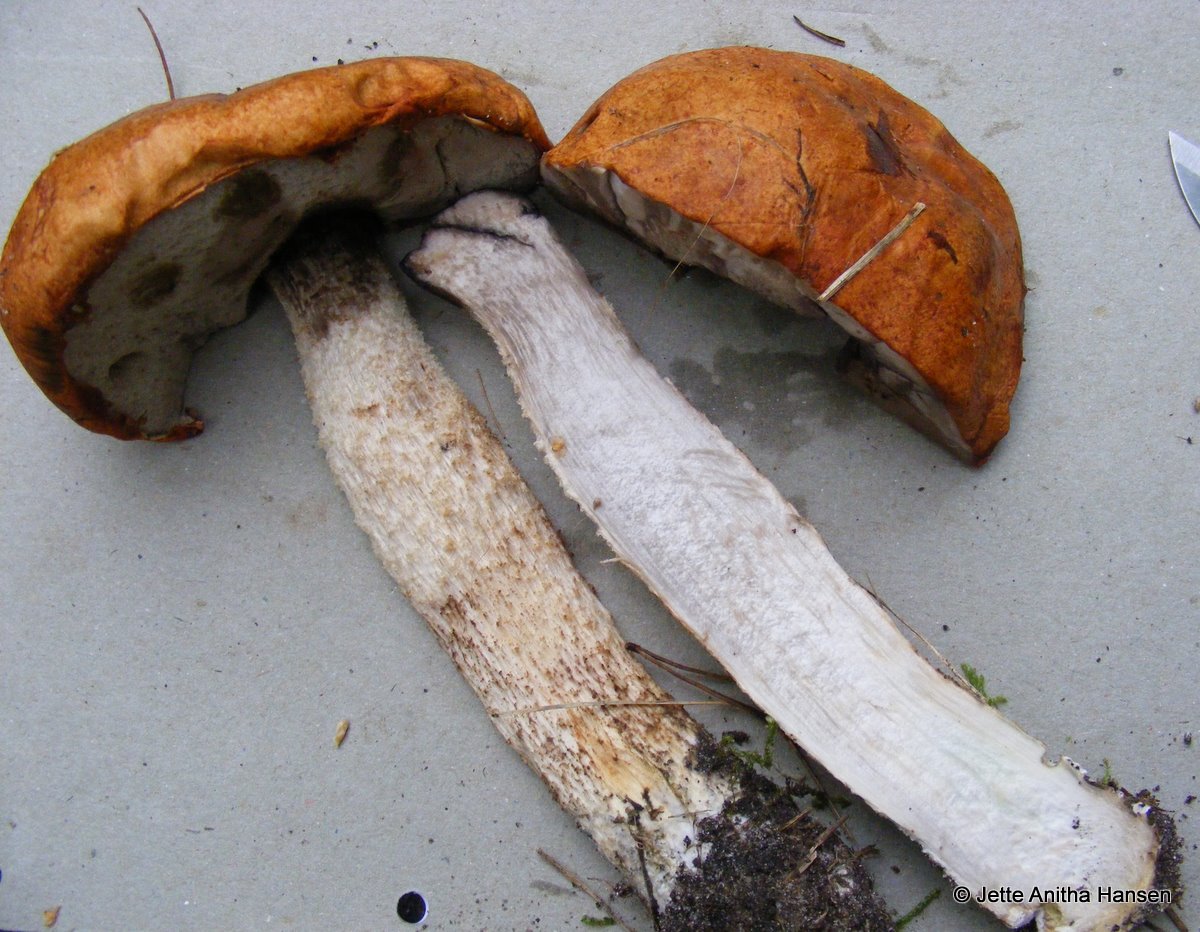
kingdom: Fungi
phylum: Basidiomycota
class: Agaricomycetes
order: Boletales
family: Boletaceae
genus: Leccinum
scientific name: Leccinum albostipitatum
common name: aspe-skælrørhat
